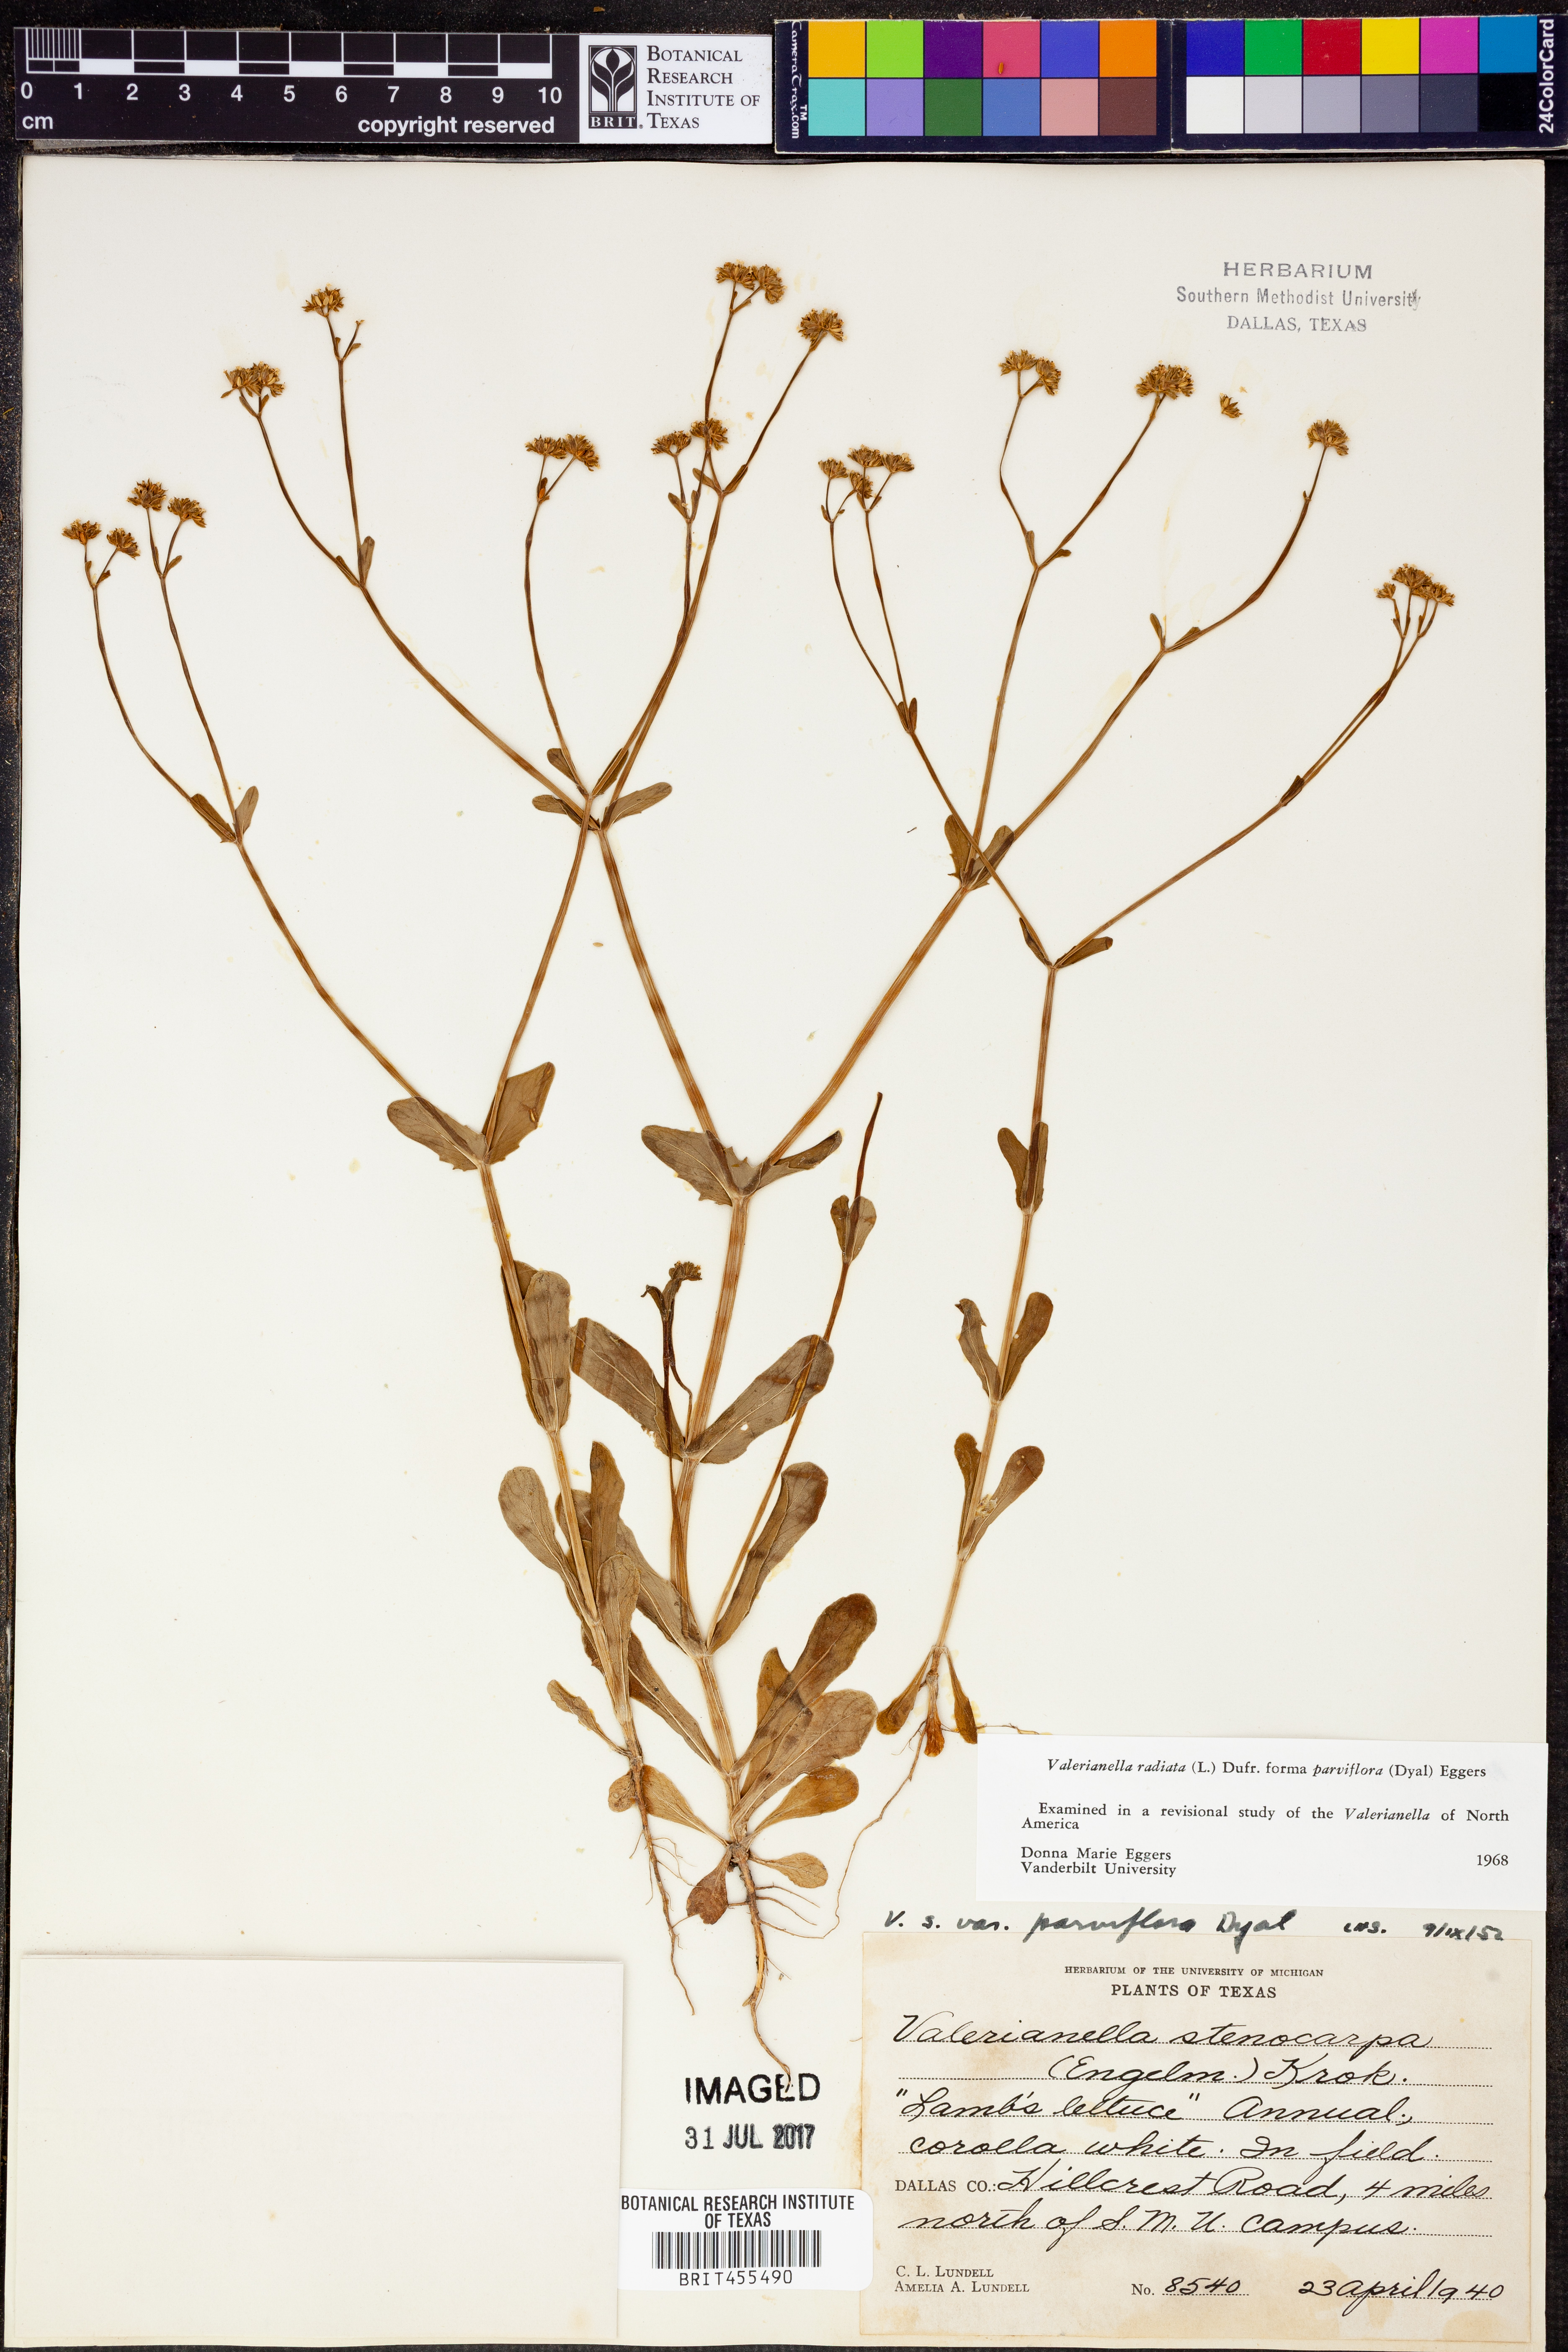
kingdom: Plantae
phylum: Tracheophyta
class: Magnoliopsida
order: Dipsacales
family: Caprifoliaceae
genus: Valerianella
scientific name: Valerianella radiata
